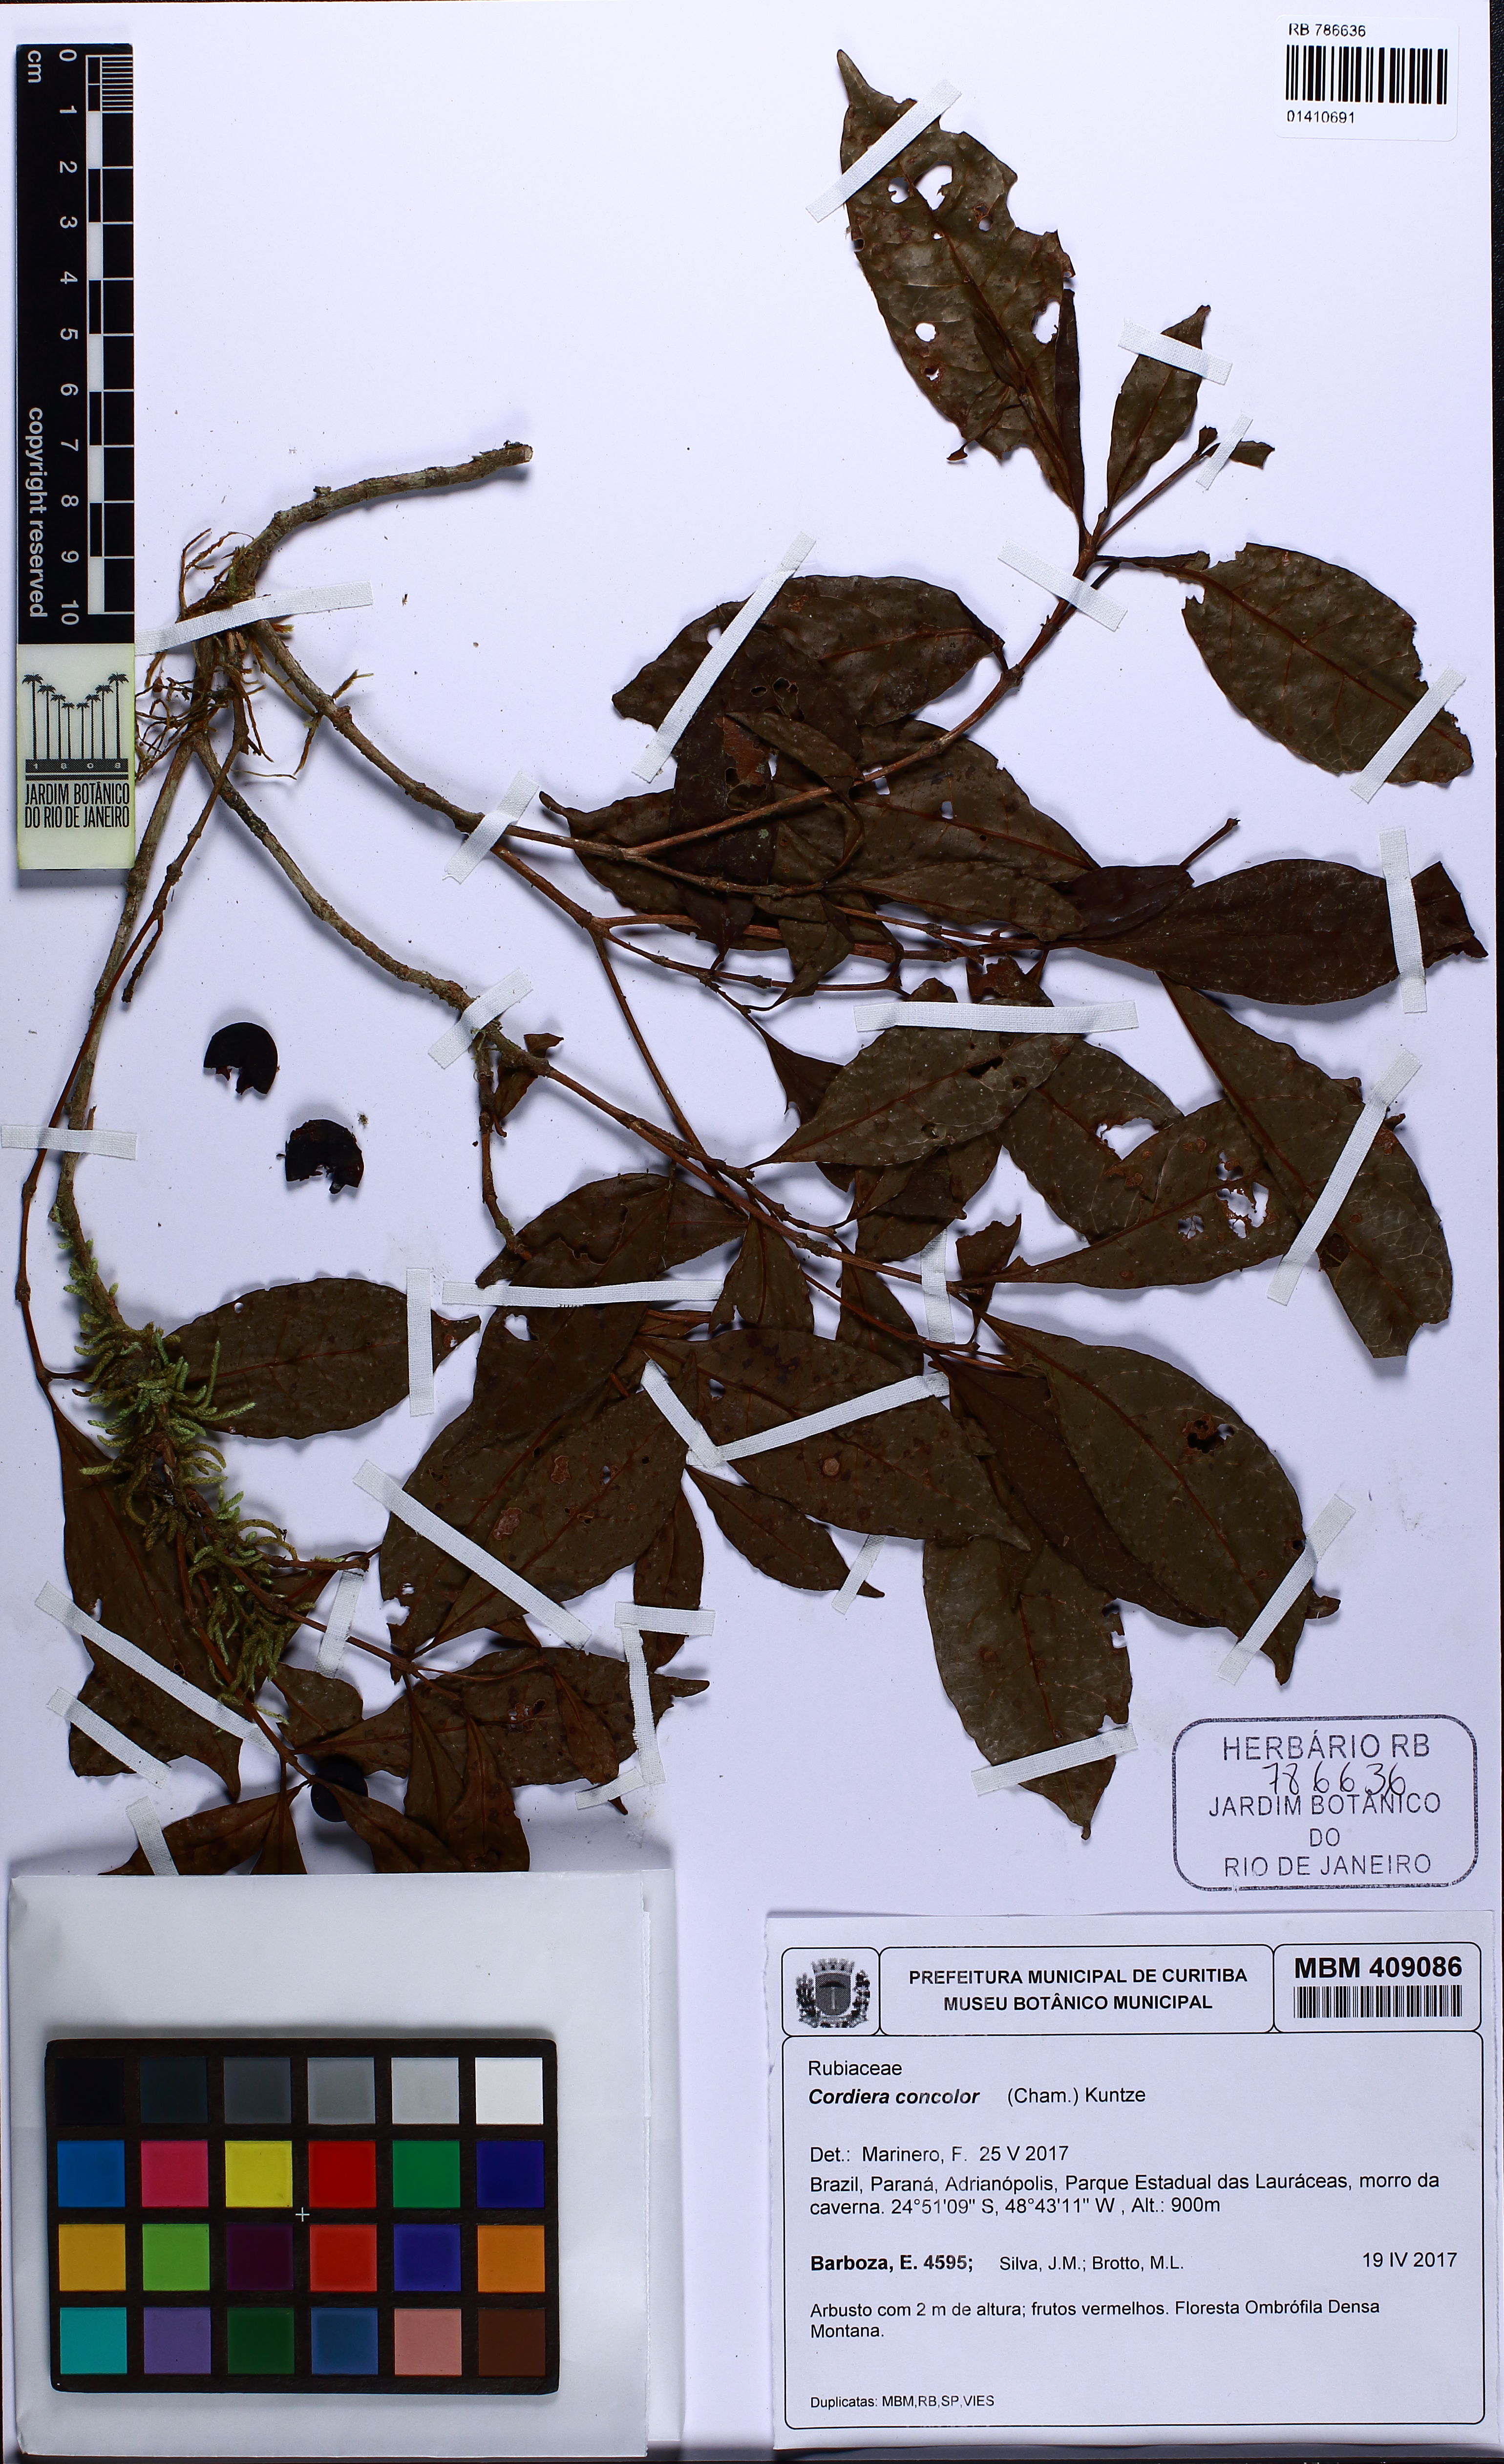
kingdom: Plantae
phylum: Tracheophyta
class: Magnoliopsida
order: Gentianales
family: Rubiaceae
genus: Cordiera
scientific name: Cordiera concolor
